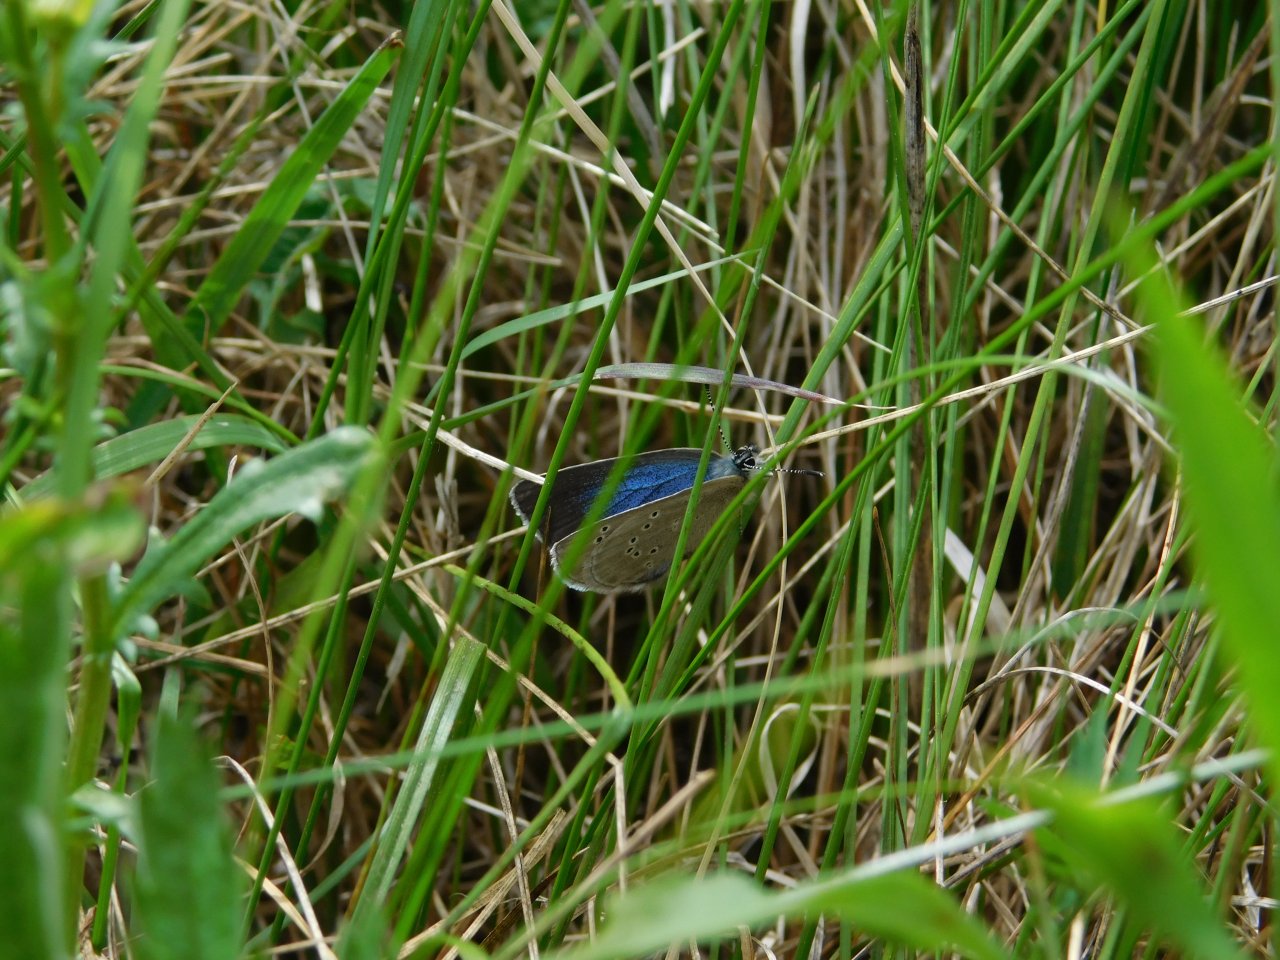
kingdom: Animalia
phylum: Arthropoda
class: Insecta
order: Lepidoptera
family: Lycaenidae
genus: Glaucopsyche
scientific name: Glaucopsyche lygdamus
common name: Silvery Blue
